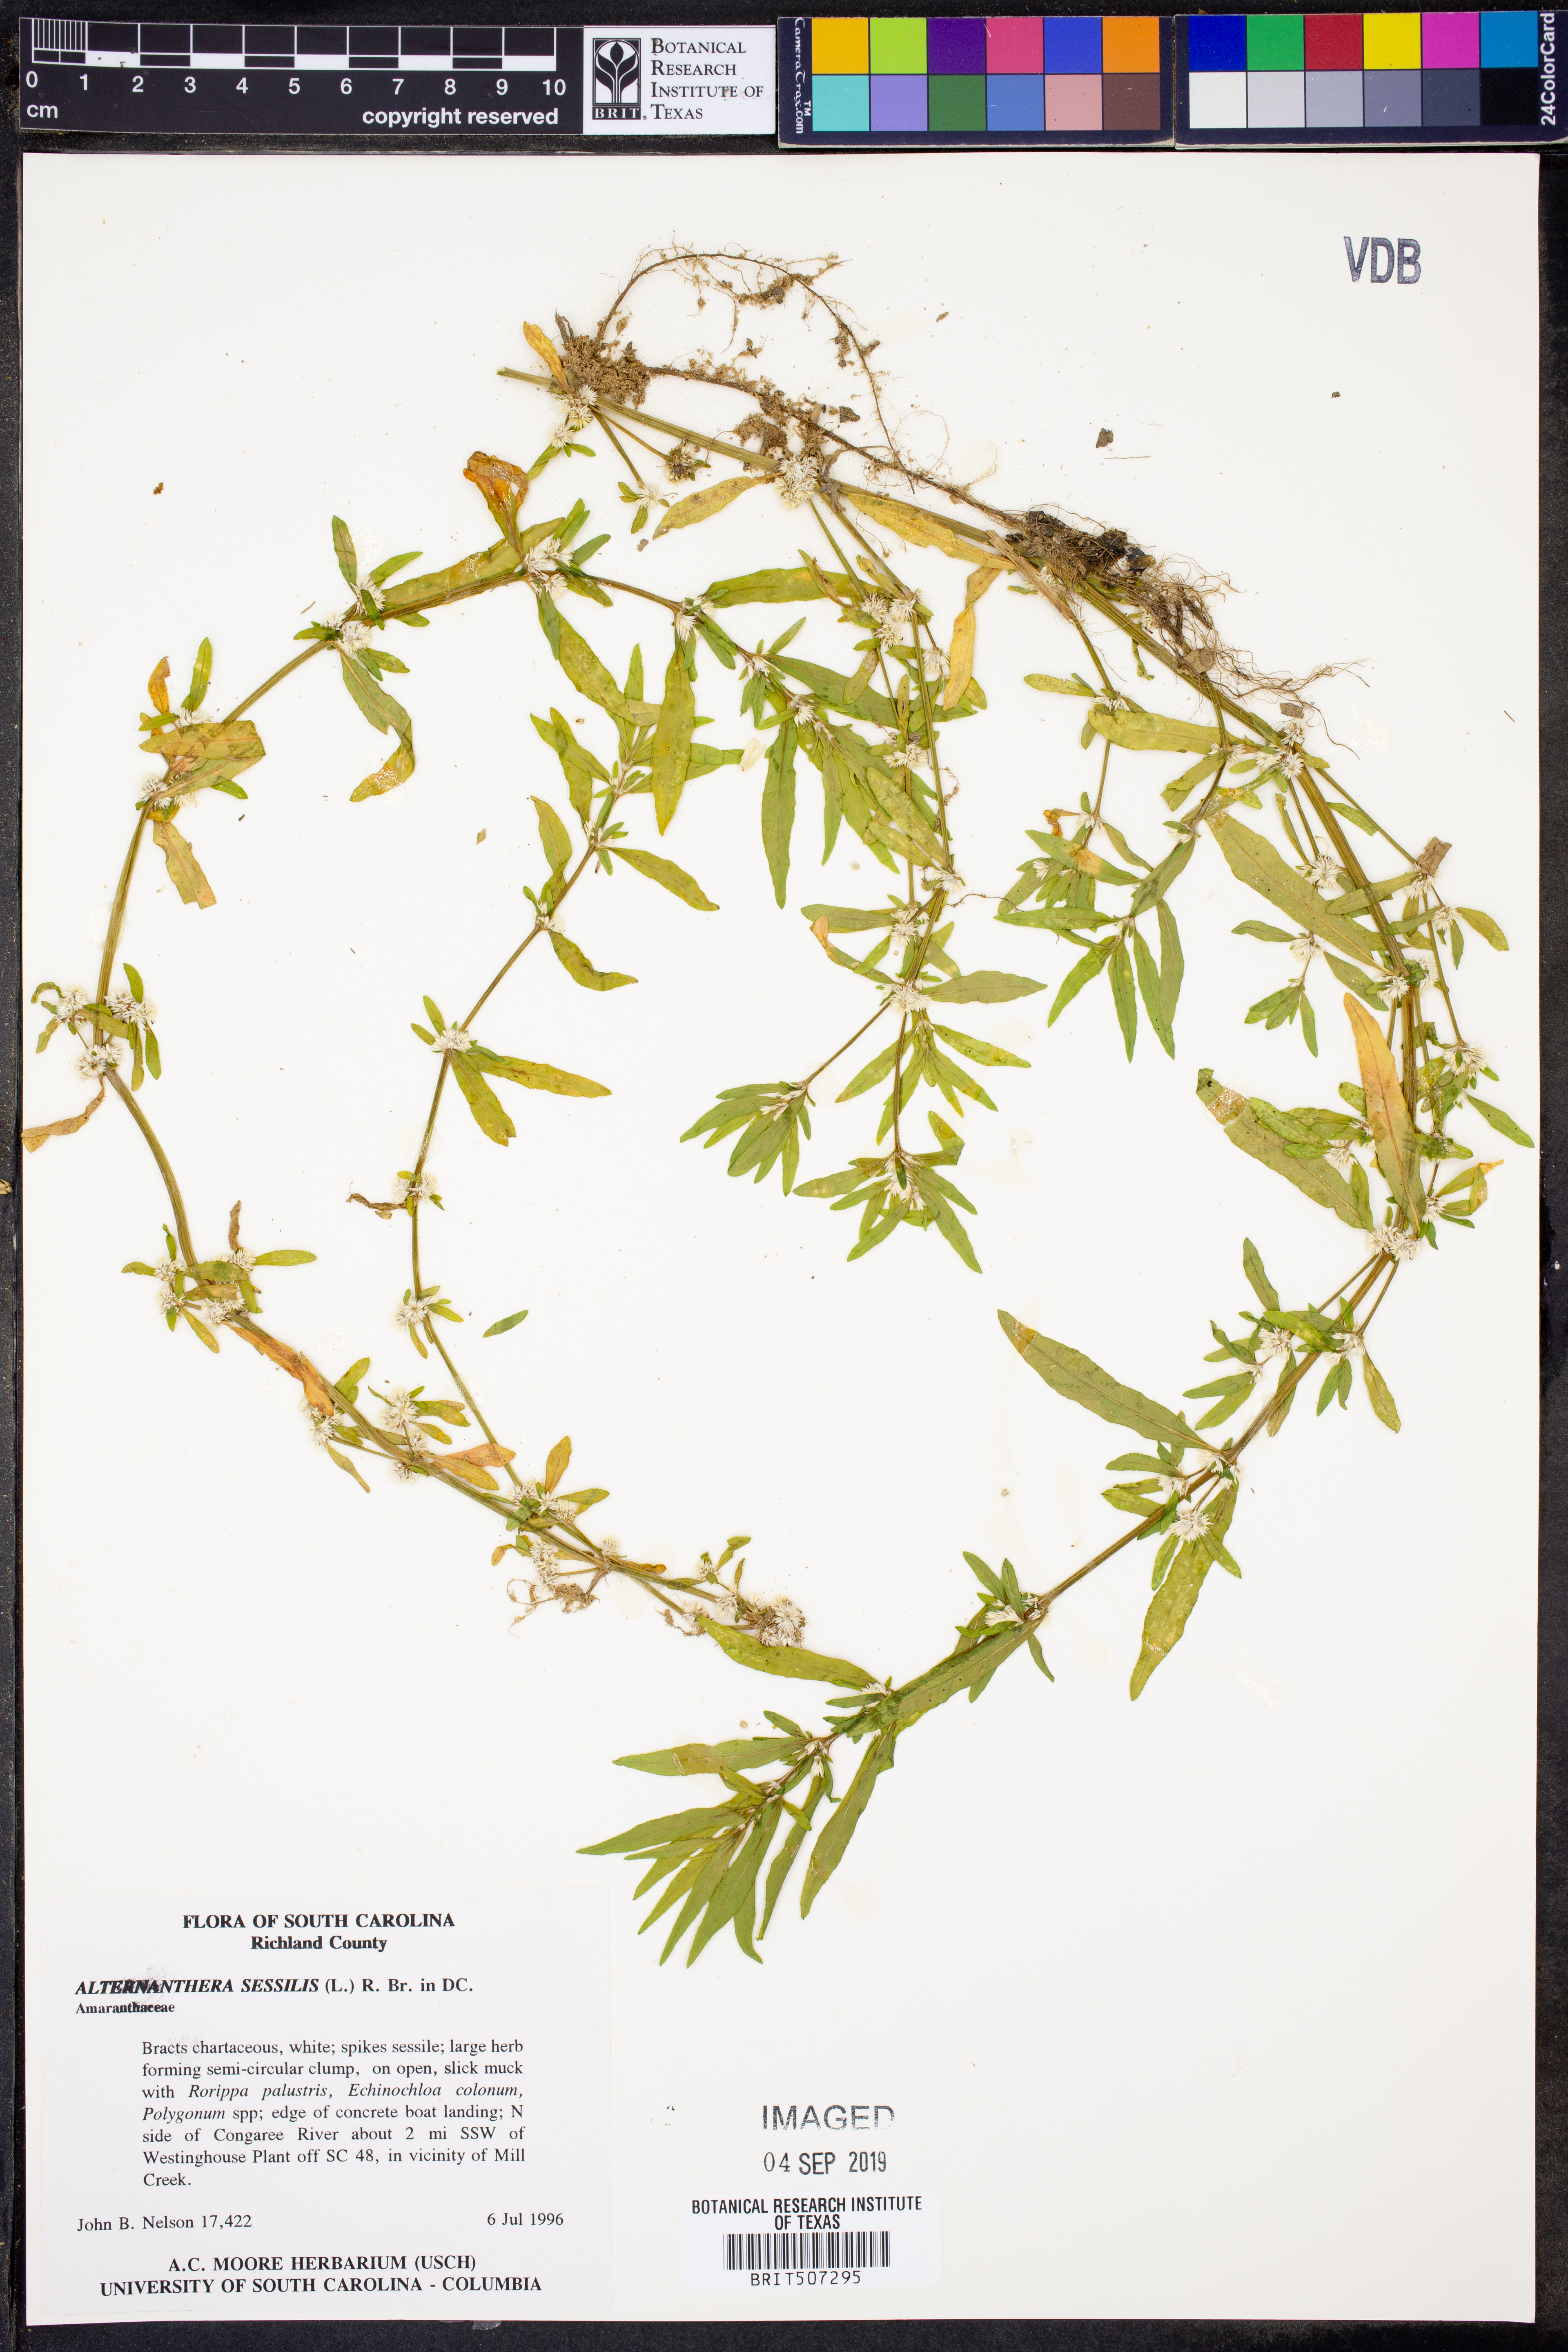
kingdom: Plantae
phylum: Tracheophyta
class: Magnoliopsida
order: Caryophyllales
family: Amaranthaceae
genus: Alternanthera
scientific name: Alternanthera sessilis
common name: Sessile joyweed
